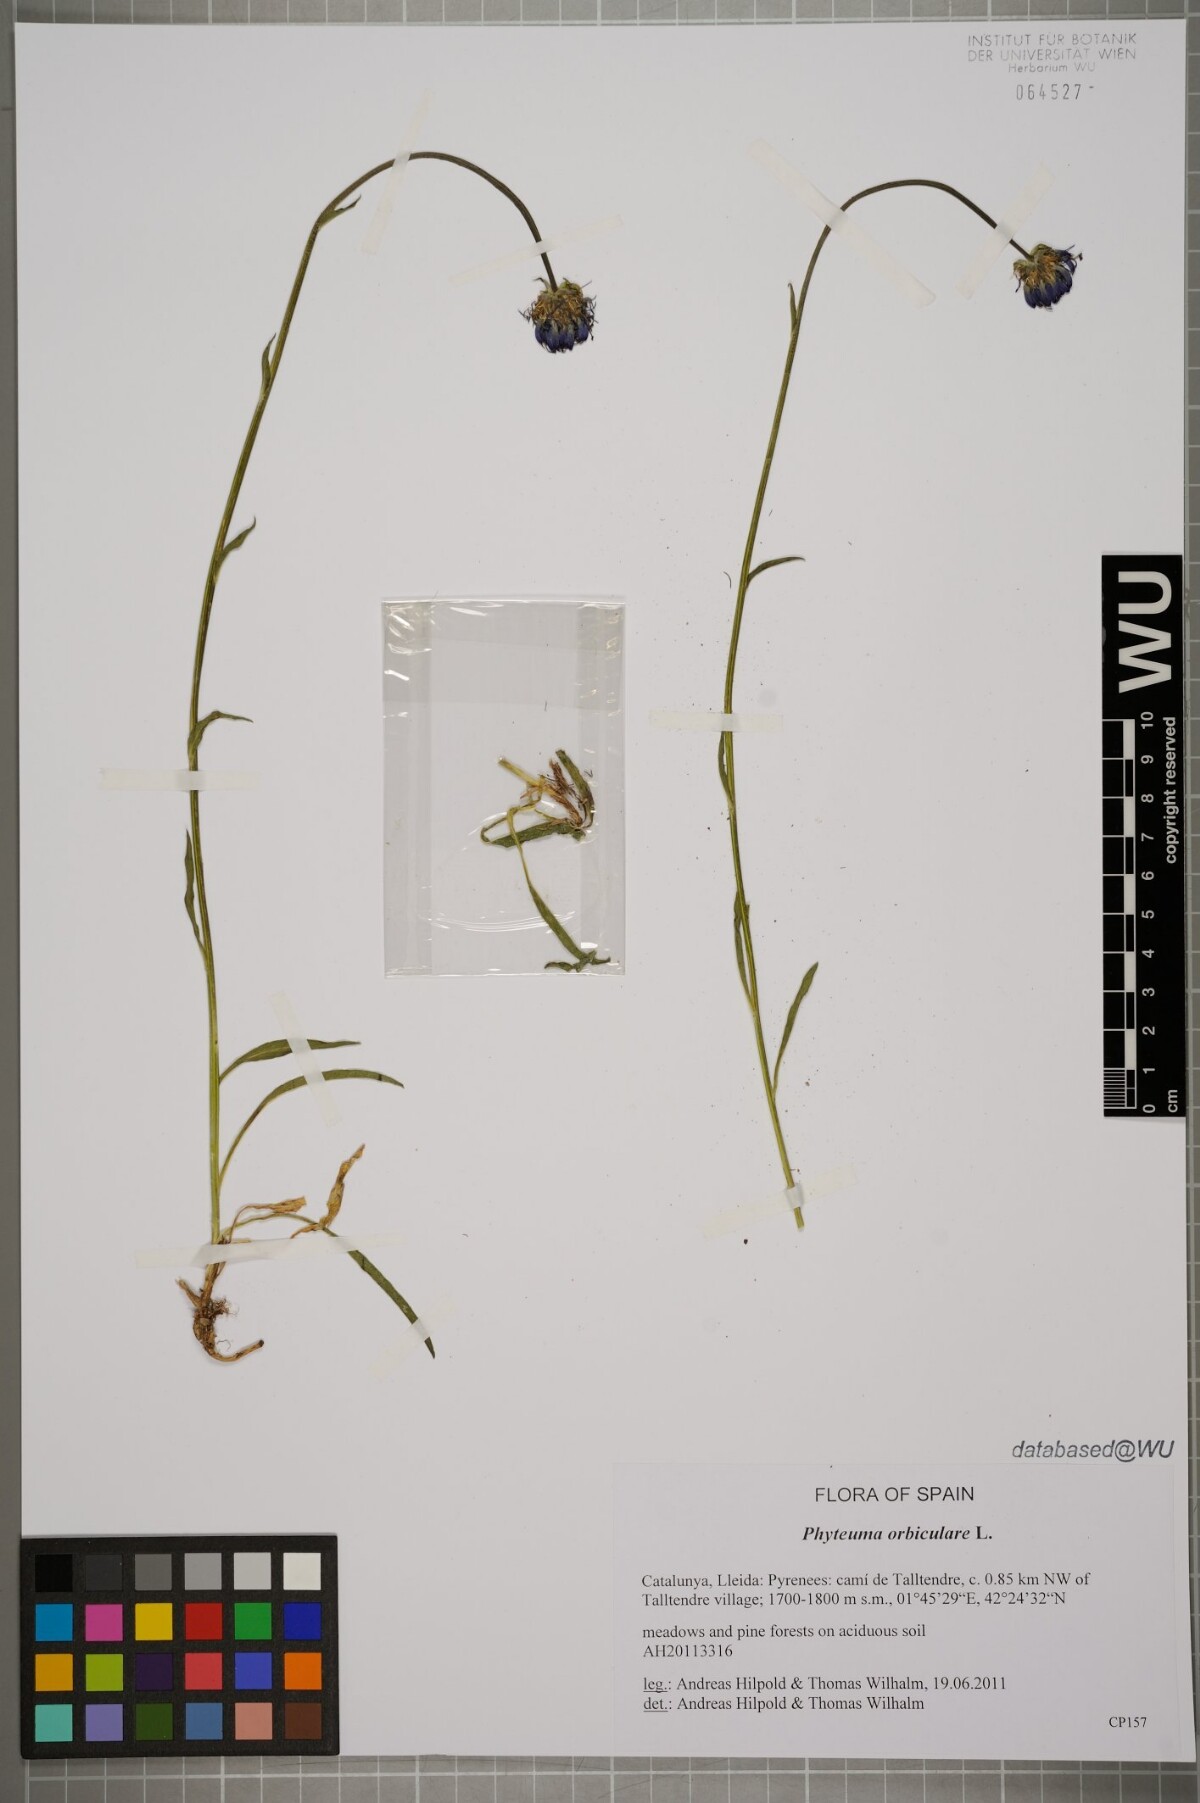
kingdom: Plantae
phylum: Tracheophyta
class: Magnoliopsida
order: Asterales
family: Campanulaceae
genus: Phyteuma
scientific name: Phyteuma orbiculare
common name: Round-headed rampion
